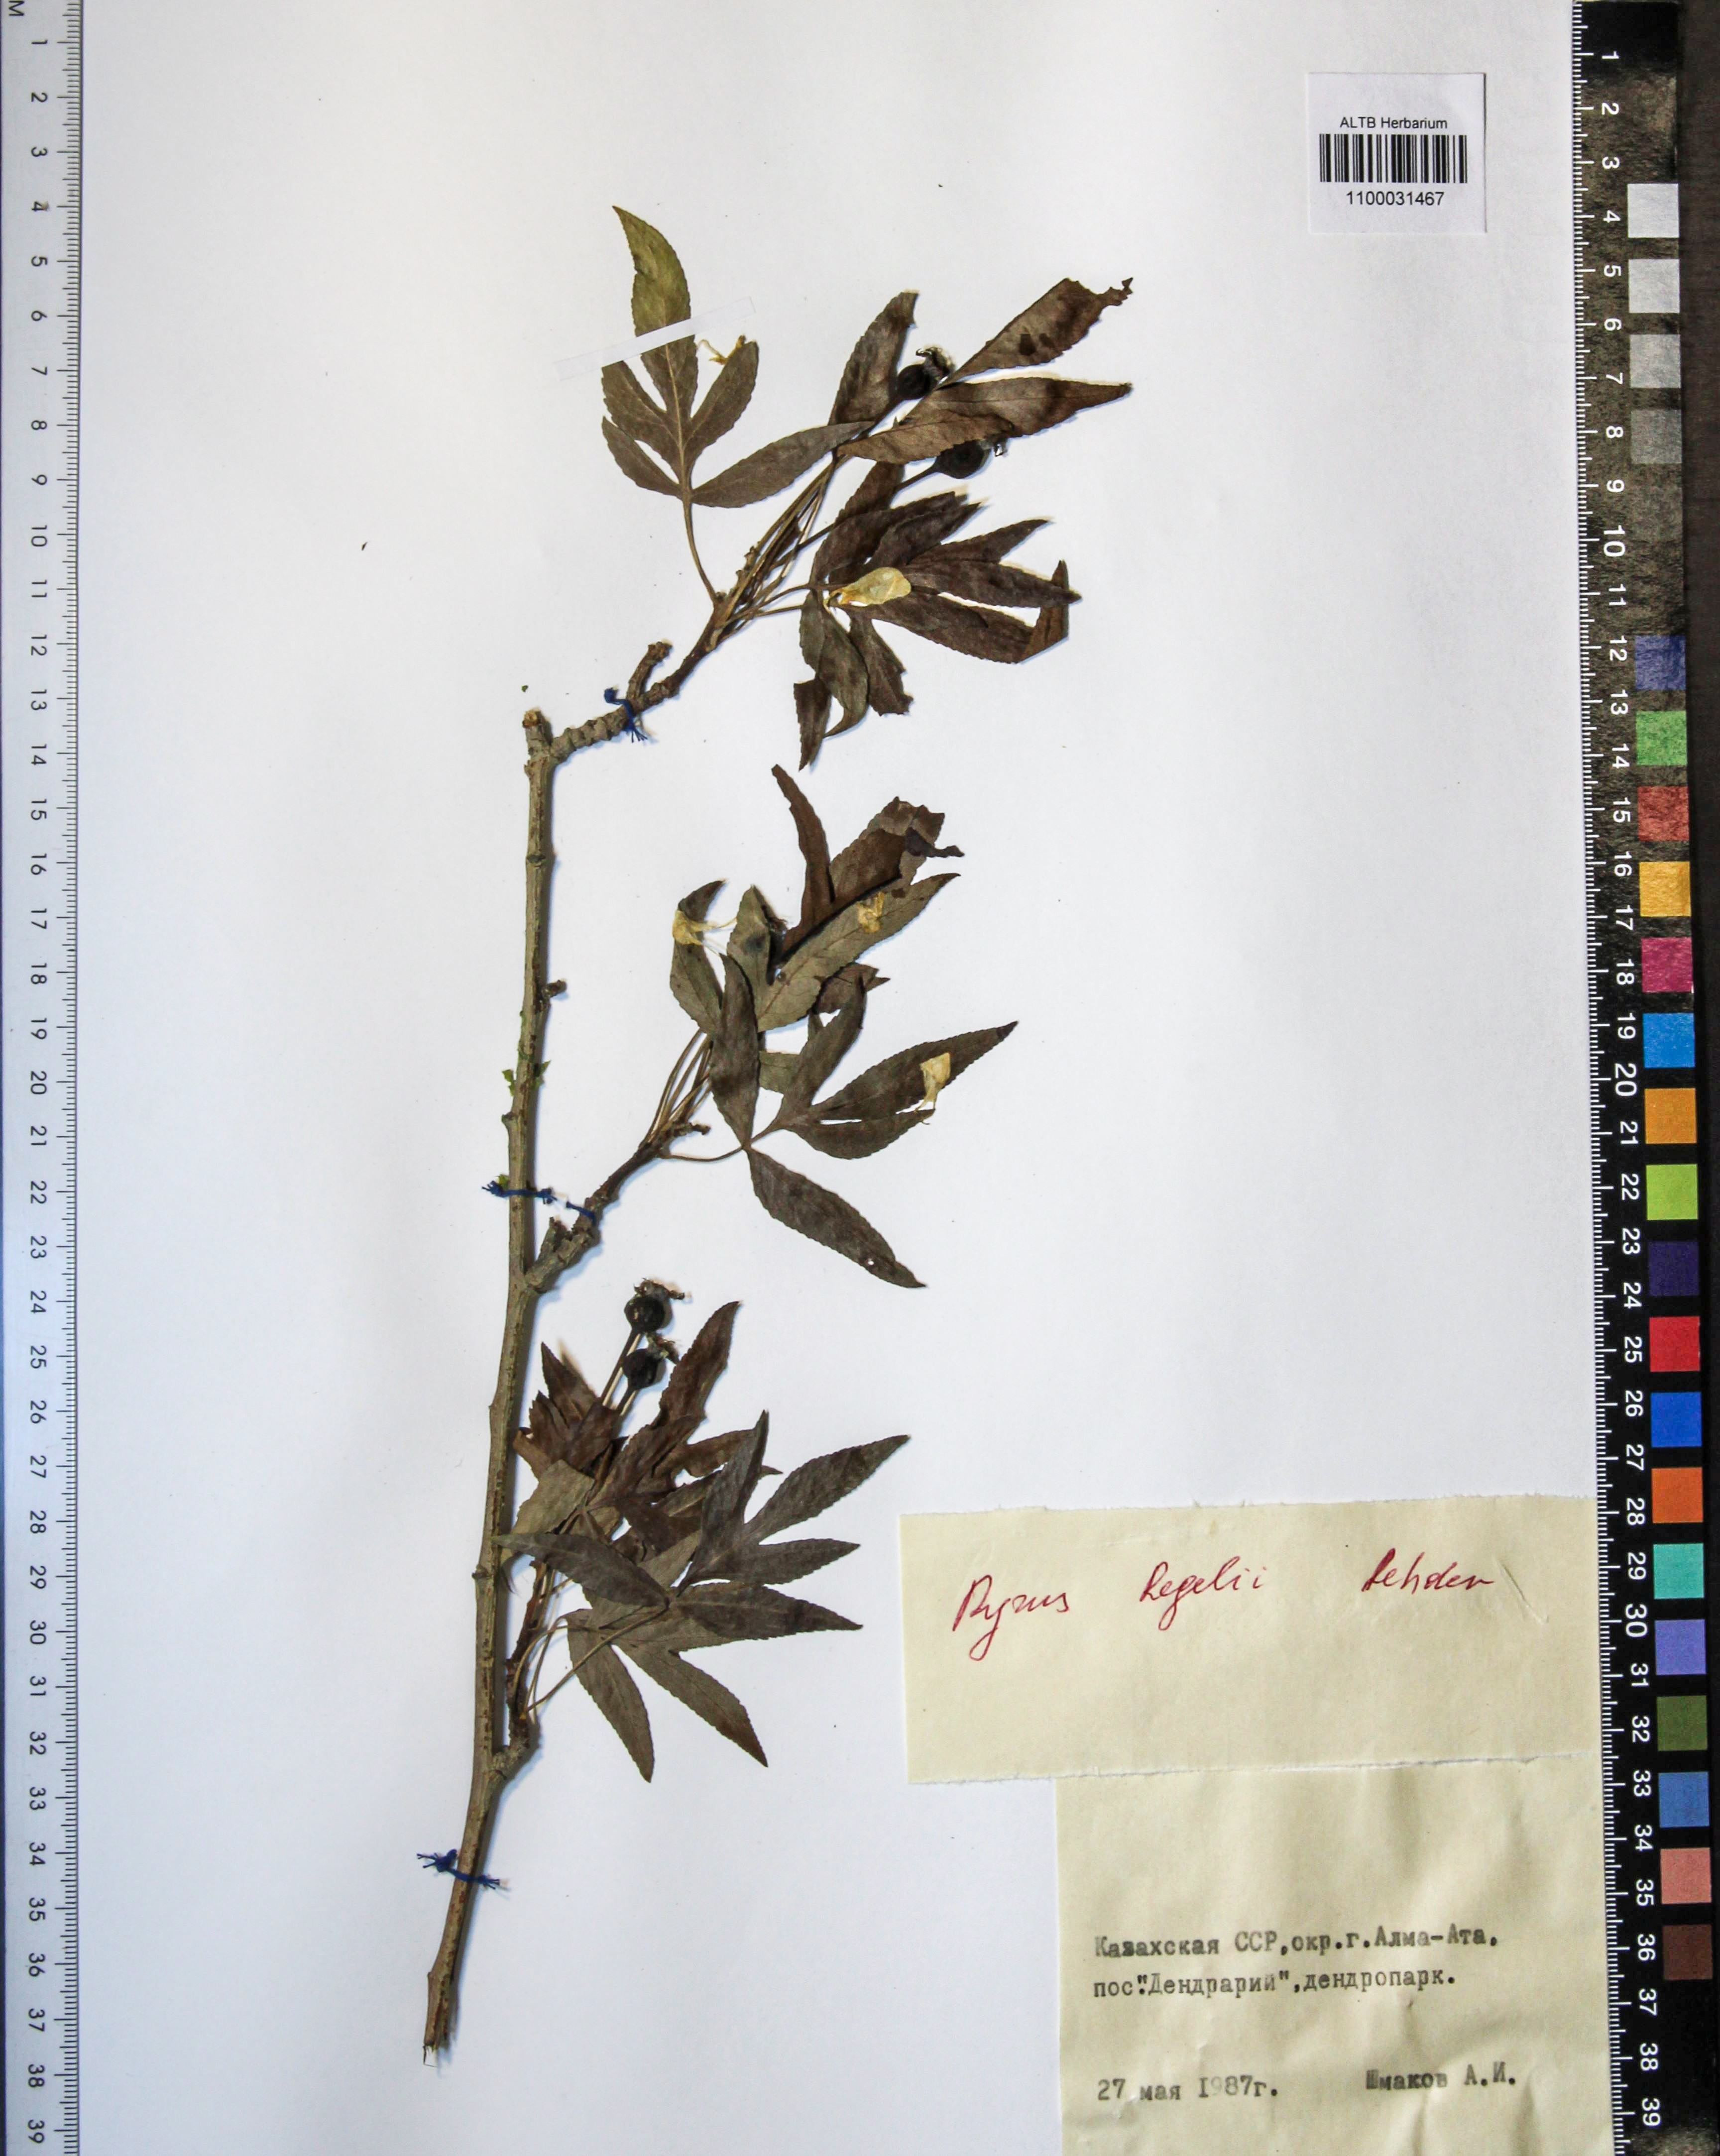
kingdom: Plantae
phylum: Tracheophyta
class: Magnoliopsida
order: Rosales
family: Rosaceae
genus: Pyrus
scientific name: Pyrus regelii
